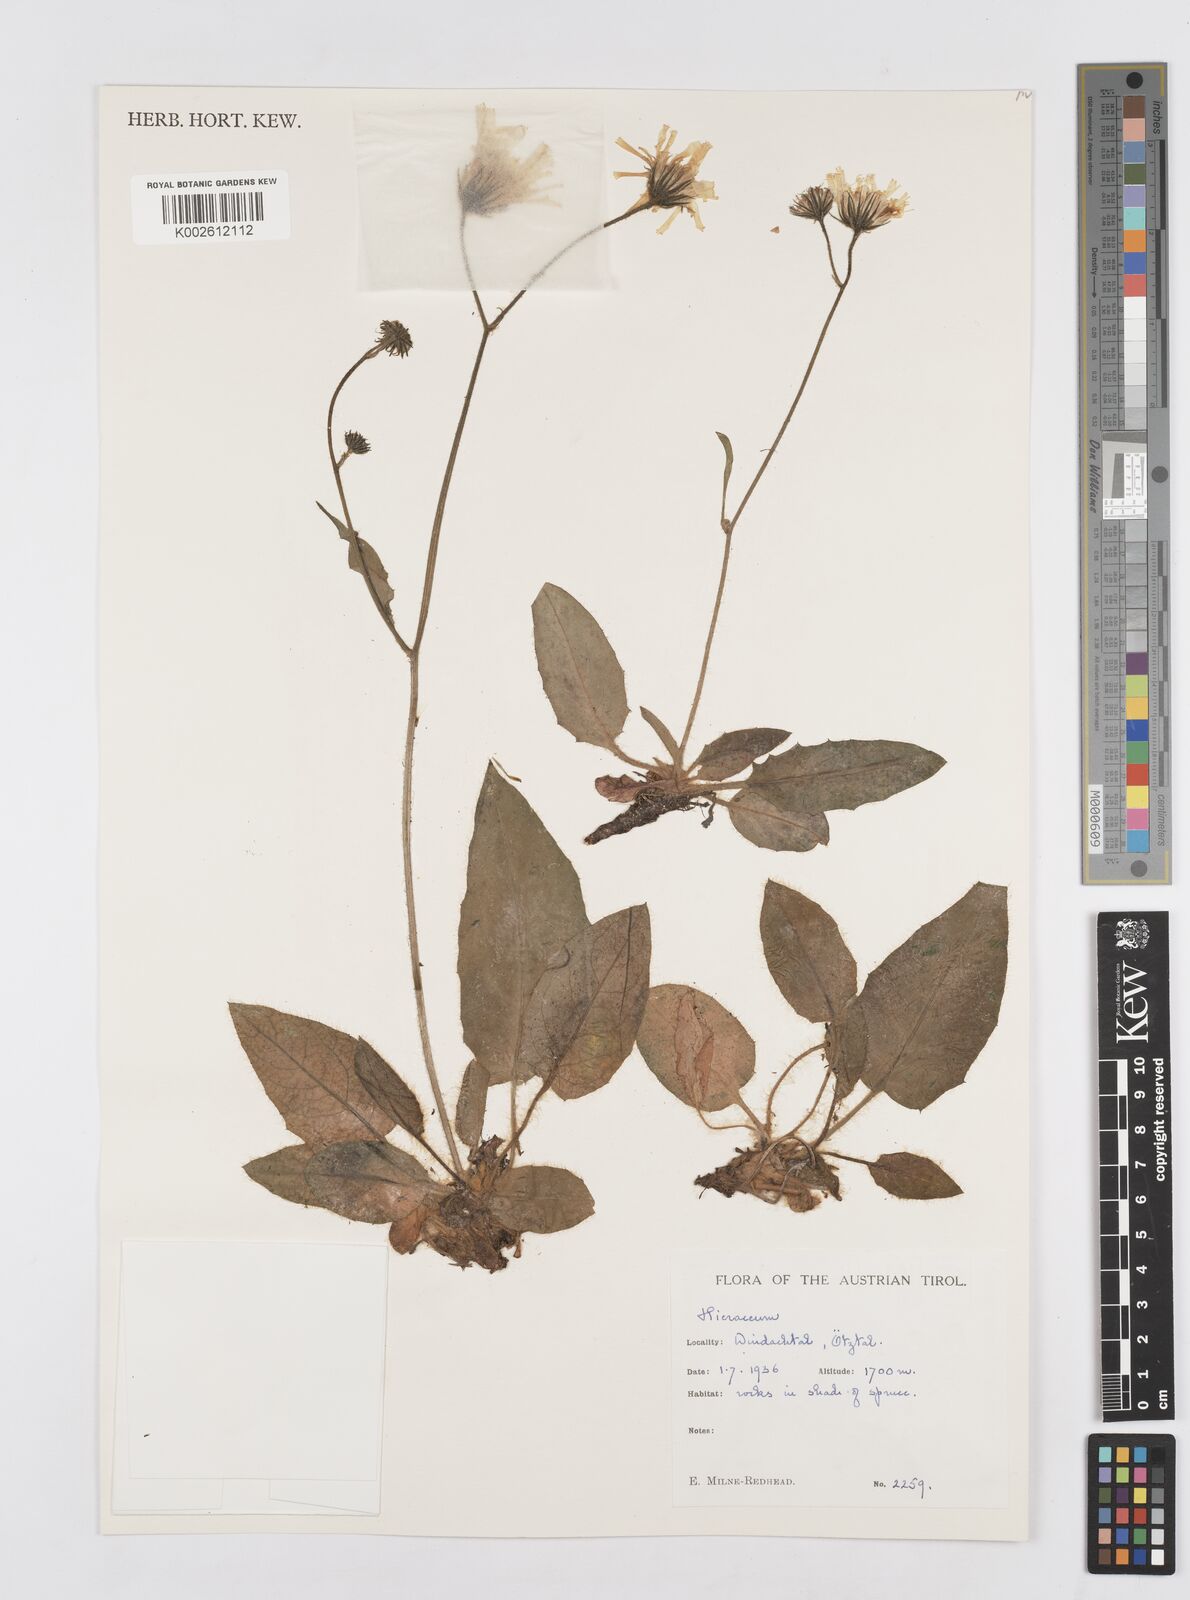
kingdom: Plantae
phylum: Tracheophyta
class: Magnoliopsida
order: Asterales
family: Asteraceae
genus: Hieracium
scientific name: Hieracium
